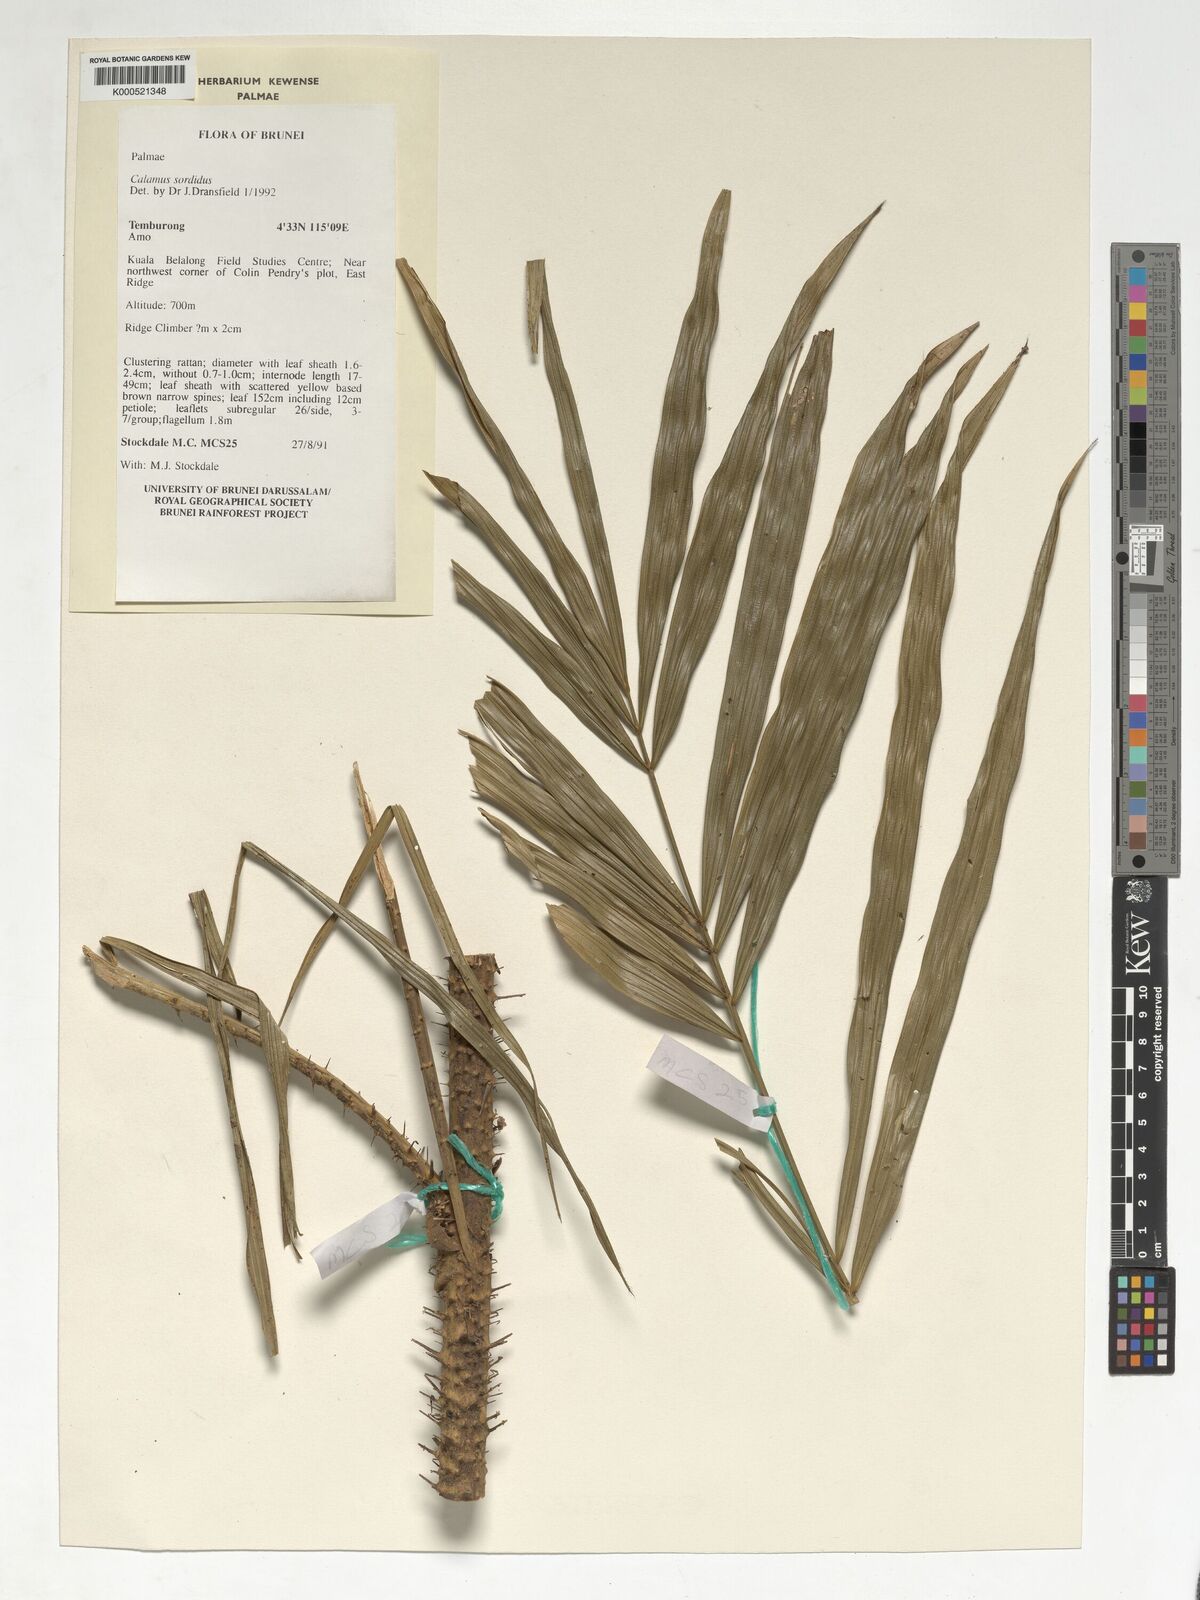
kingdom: Plantae
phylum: Tracheophyta
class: Liliopsida
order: Arecales
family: Arecaceae
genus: Calamus
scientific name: Calamus sordidus
